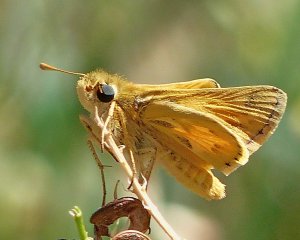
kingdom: Animalia
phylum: Arthropoda
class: Insecta
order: Lepidoptera
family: Hesperiidae
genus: Polites
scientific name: Polites sabuleti
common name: Sandhill Skipper
